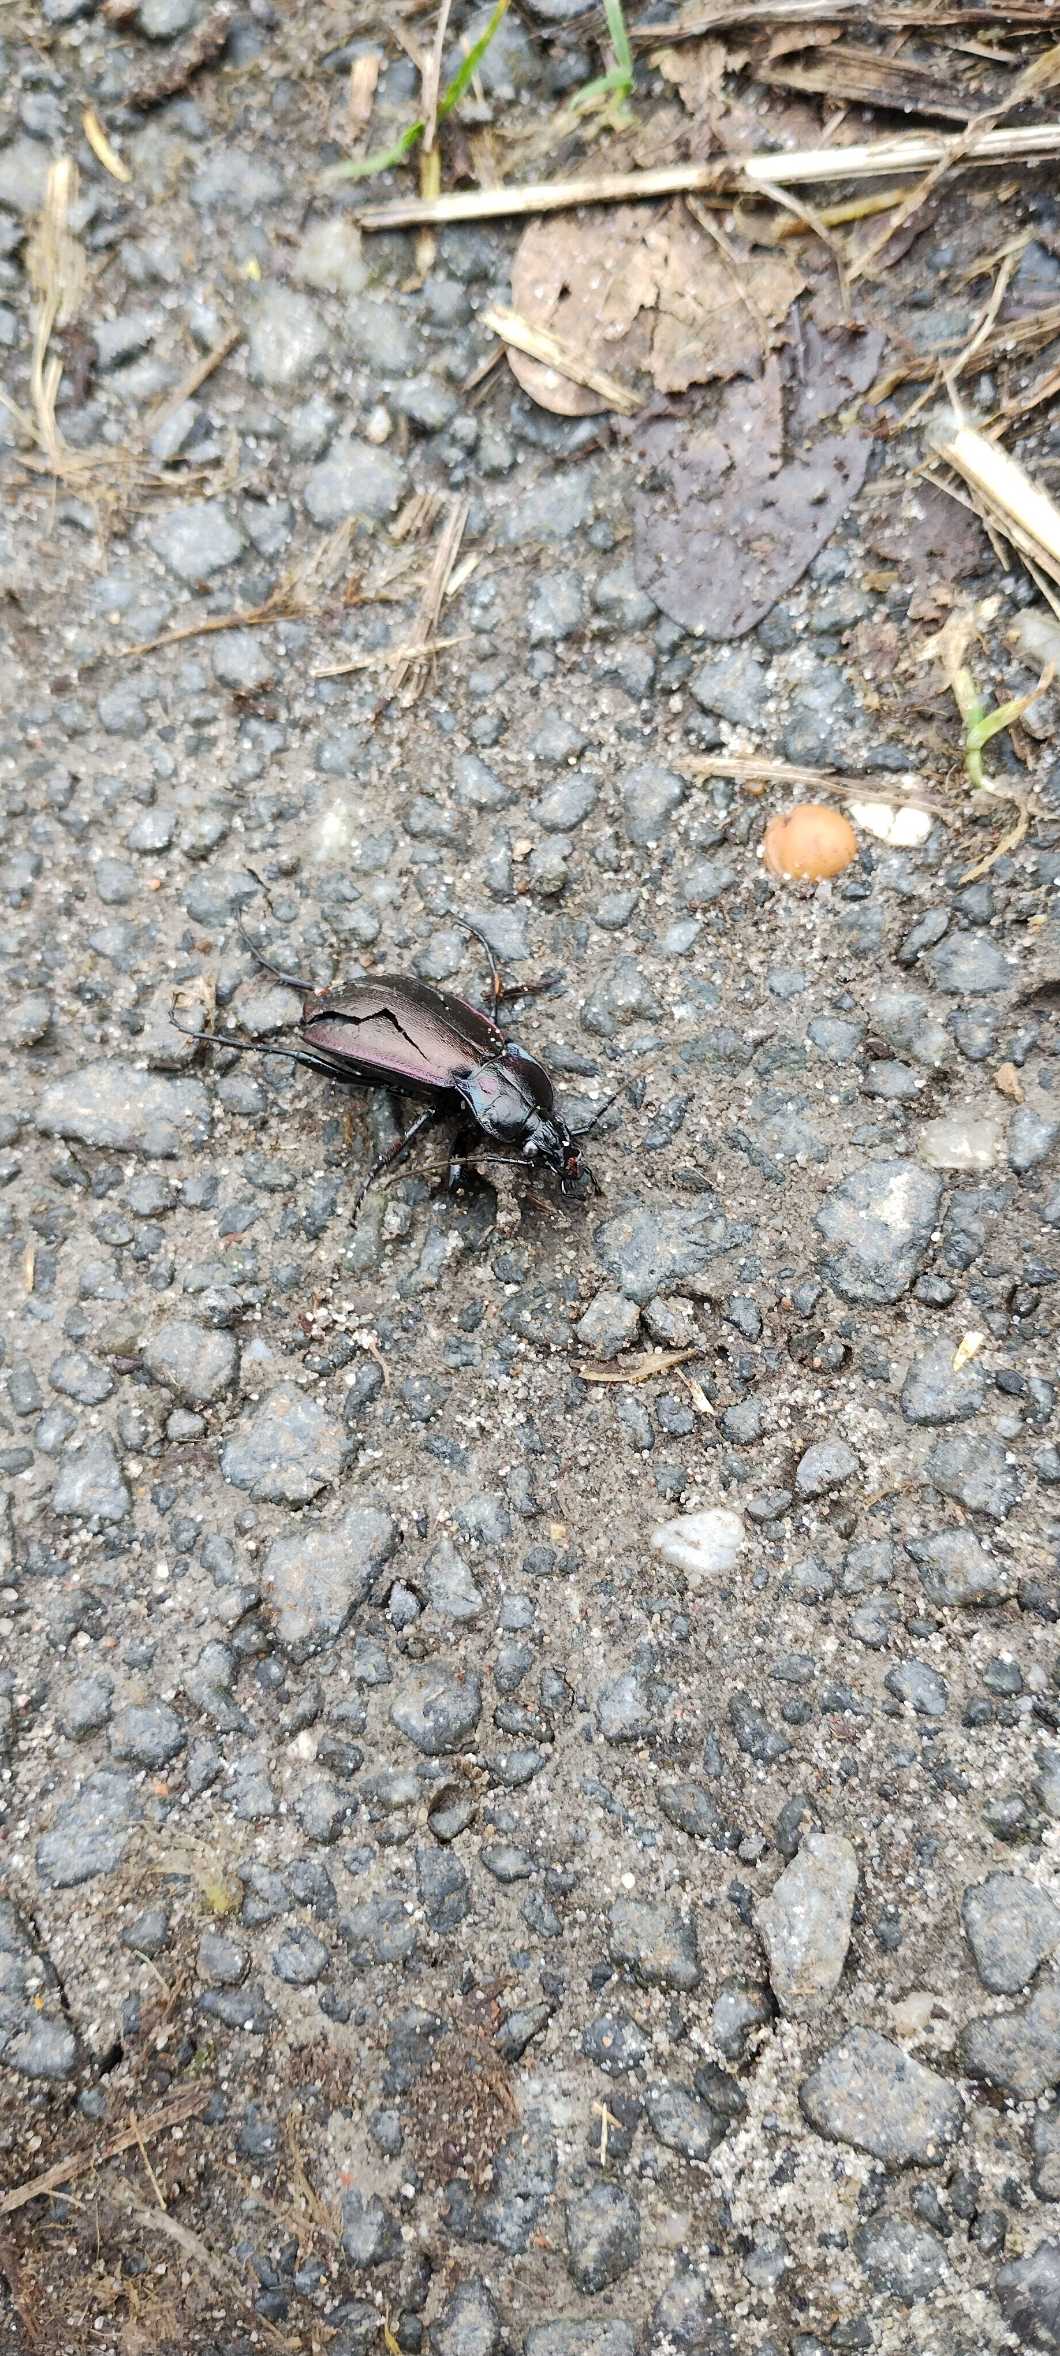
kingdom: Animalia
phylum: Arthropoda
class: Insecta
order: Coleoptera
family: Carabidae
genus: Carabus
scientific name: Carabus nemoralis
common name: Kratløber
